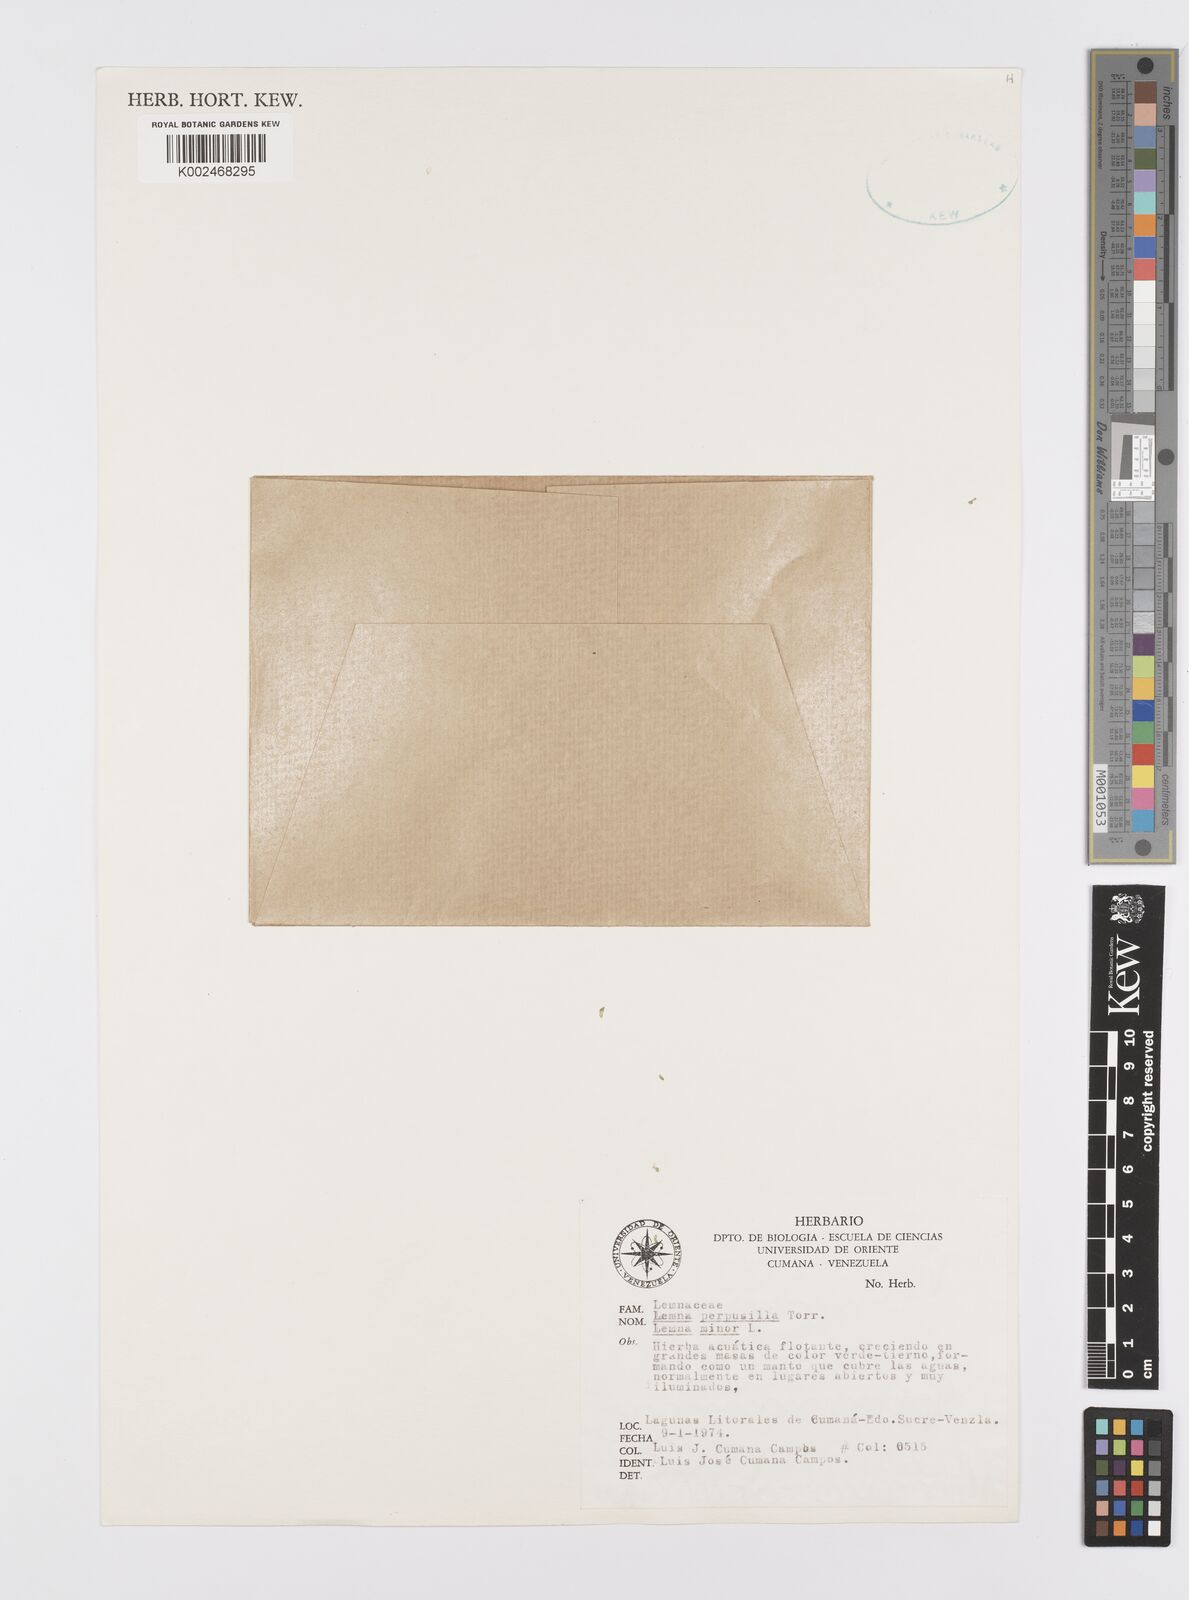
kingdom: Plantae
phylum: Tracheophyta
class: Liliopsida
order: Alismatales
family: Araceae
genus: Lemna
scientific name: Lemna minor
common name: Common duckweed
